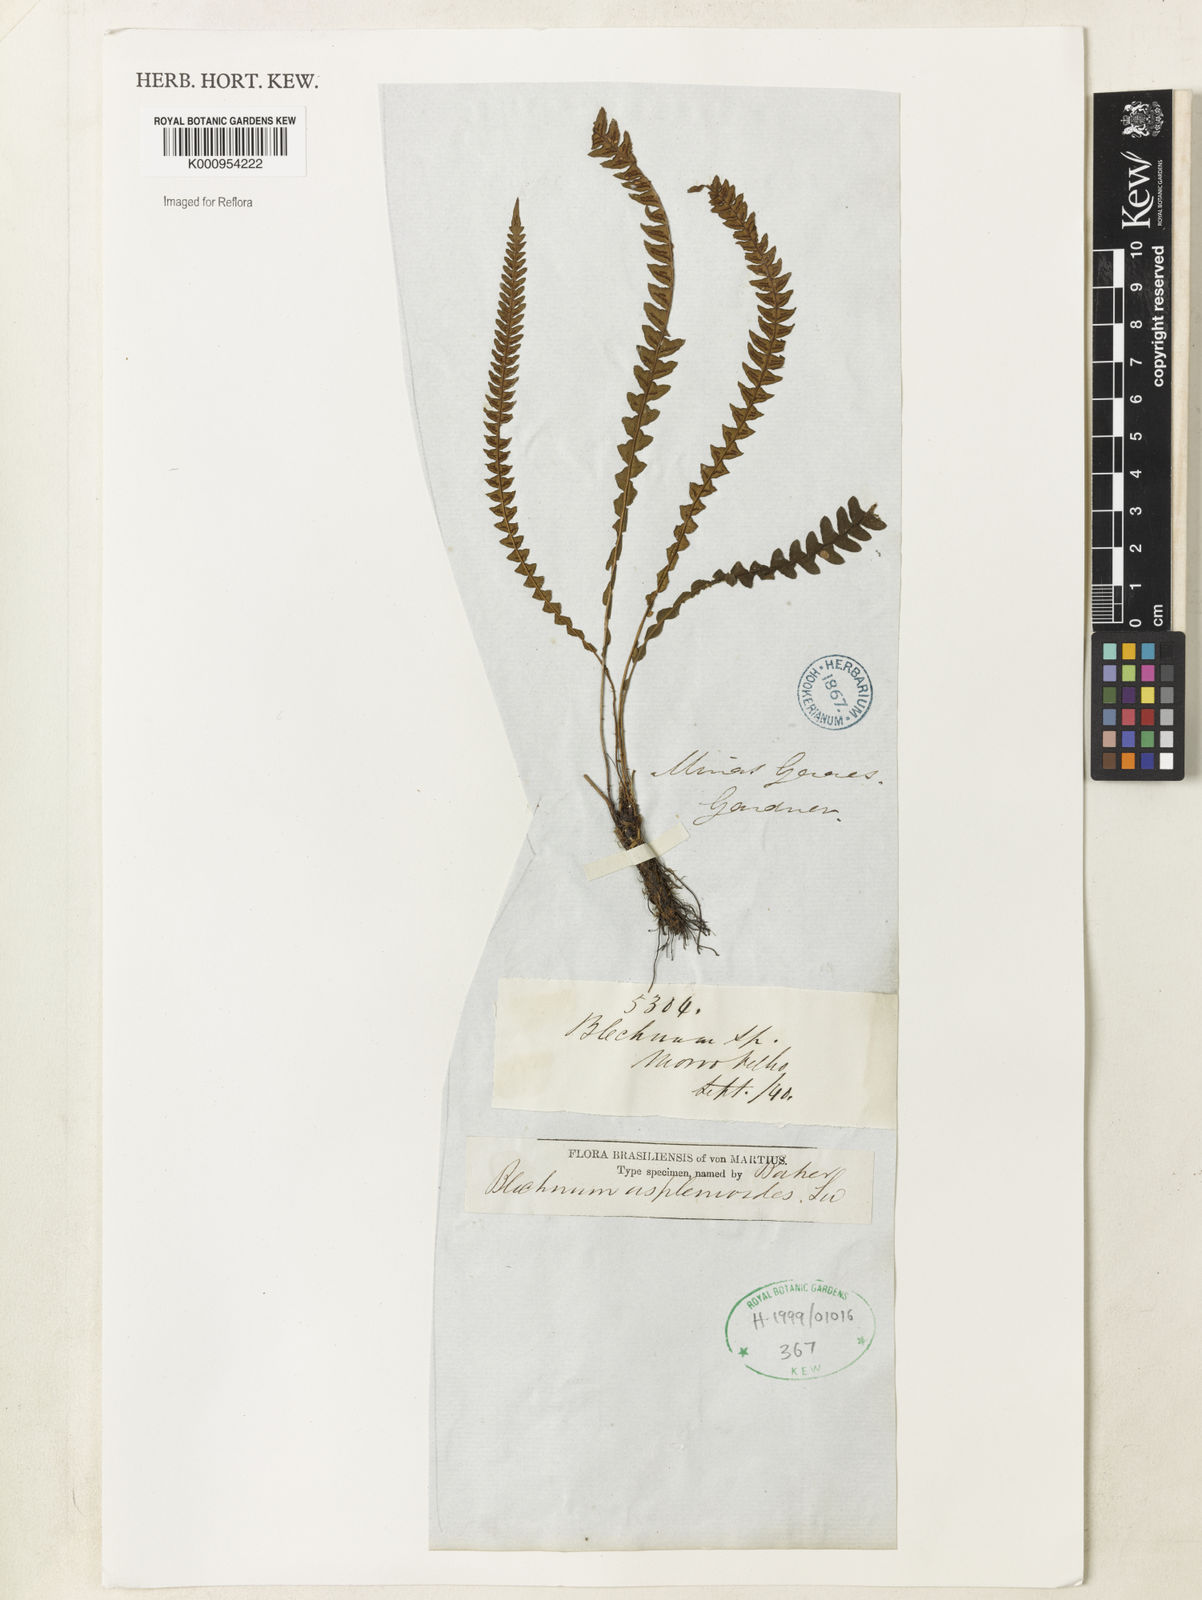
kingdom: Plantae
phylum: Tracheophyta
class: Polypodiopsida
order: Polypodiales
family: Blechnaceae
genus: Blechnum
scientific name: Blechnum asplenioides
